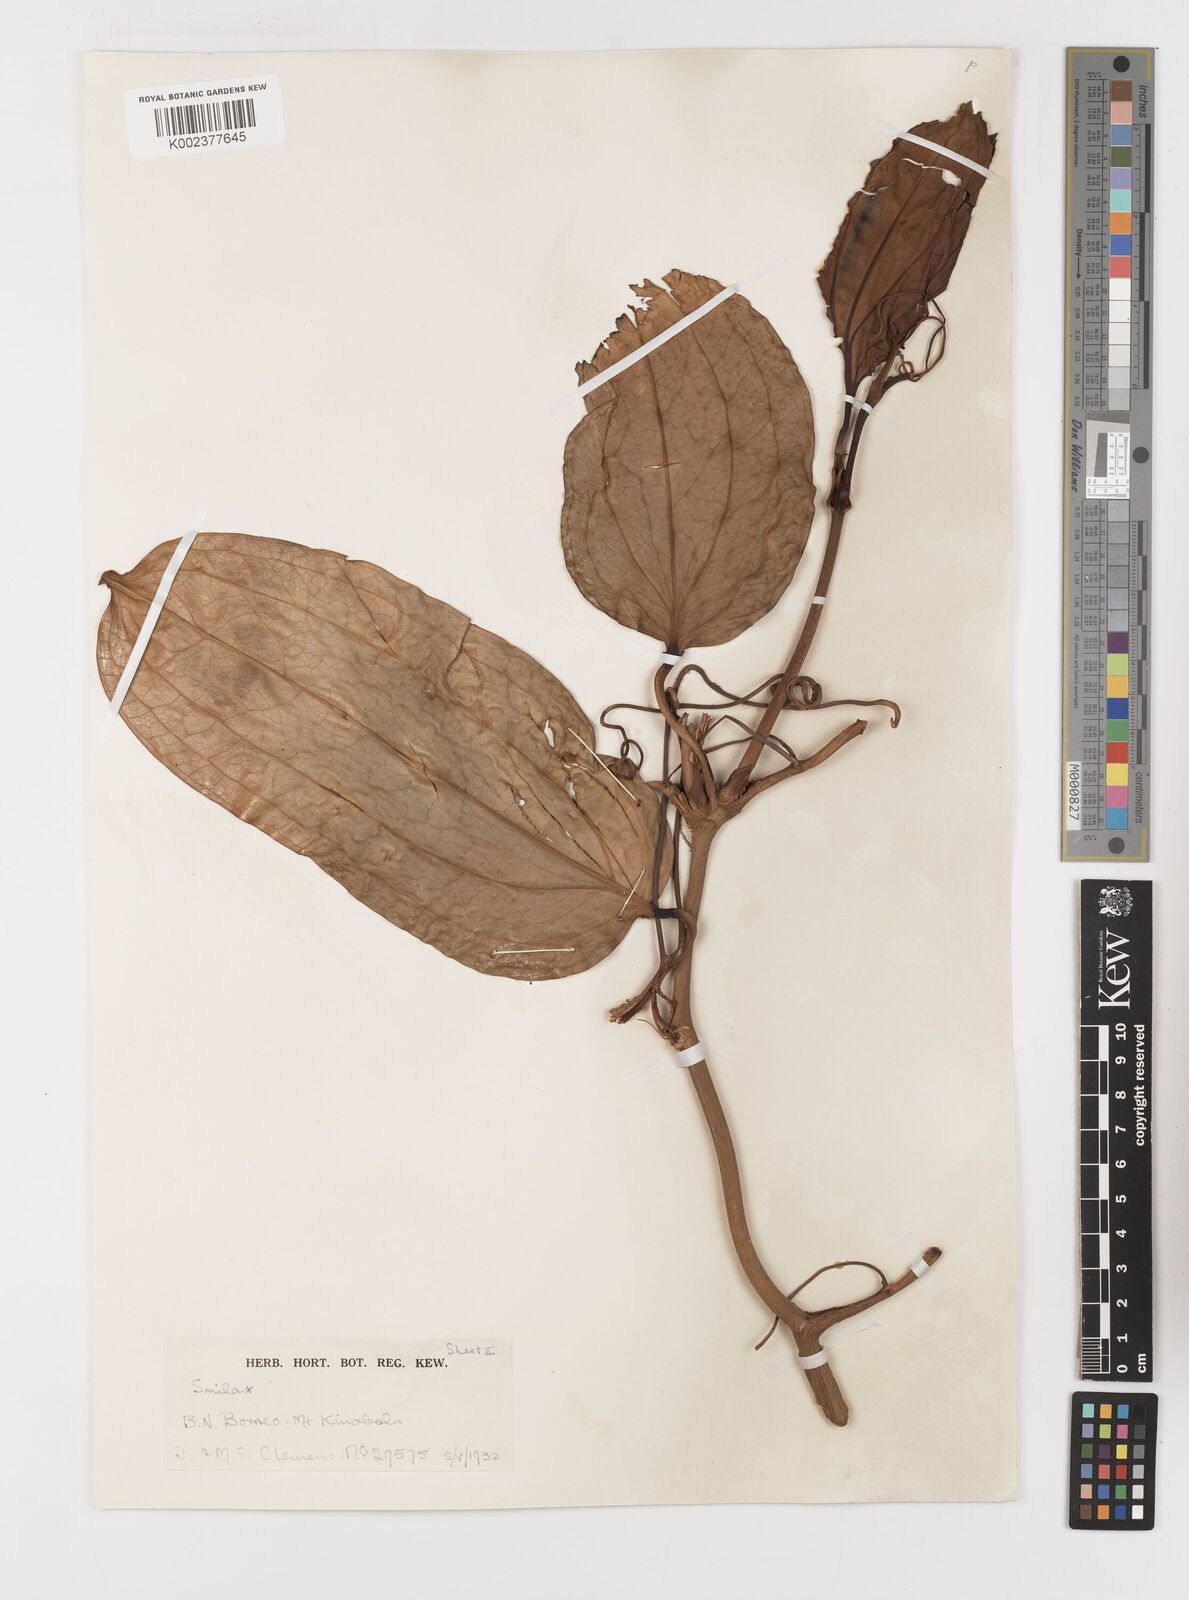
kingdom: Plantae
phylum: Tracheophyta
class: Liliopsida
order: Liliales
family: Smilacaceae
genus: Smilax
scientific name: Smilax leucophylla
